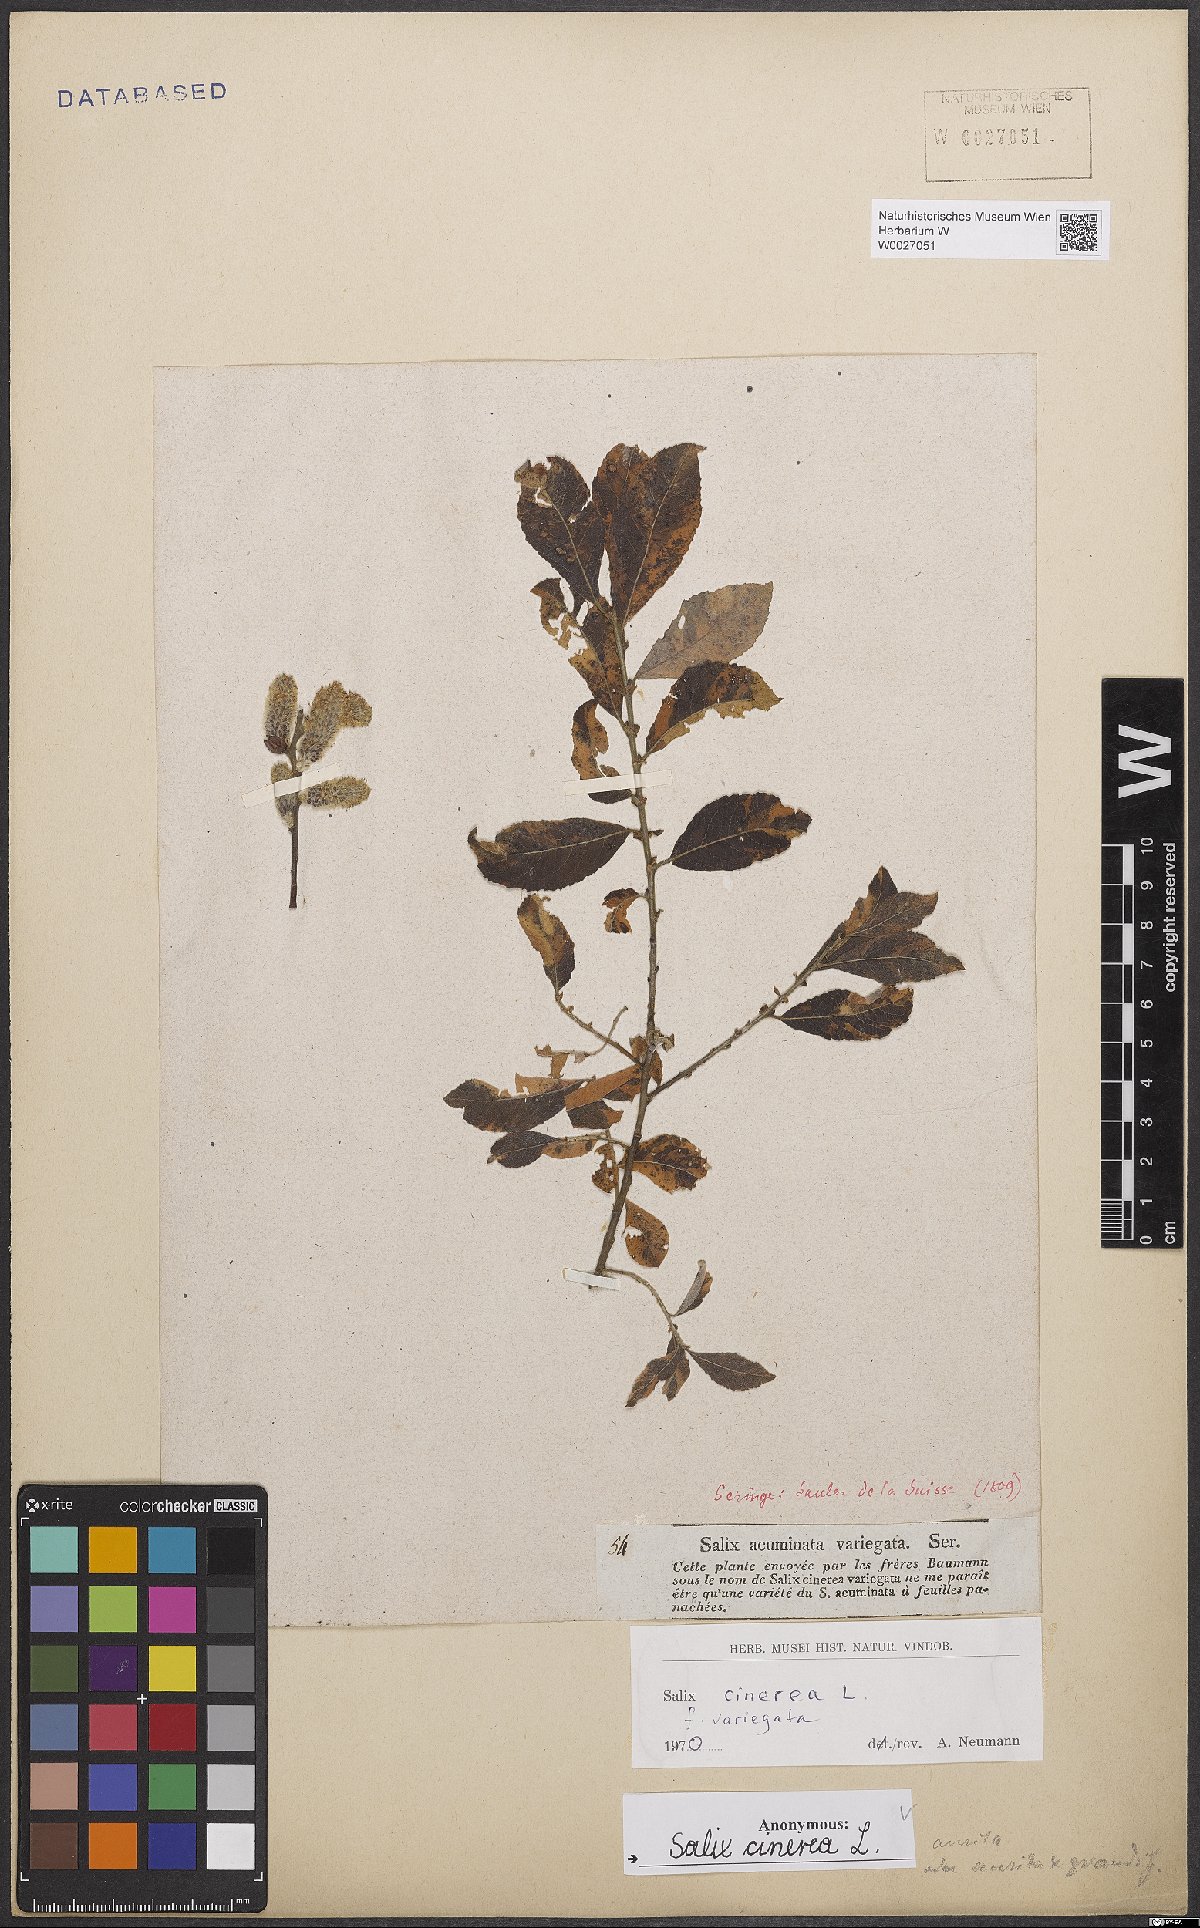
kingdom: Plantae
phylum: Tracheophyta
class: Magnoliopsida
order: Malpighiales
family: Salicaceae
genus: Salix
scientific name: Salix cinerea
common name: Common sallow
